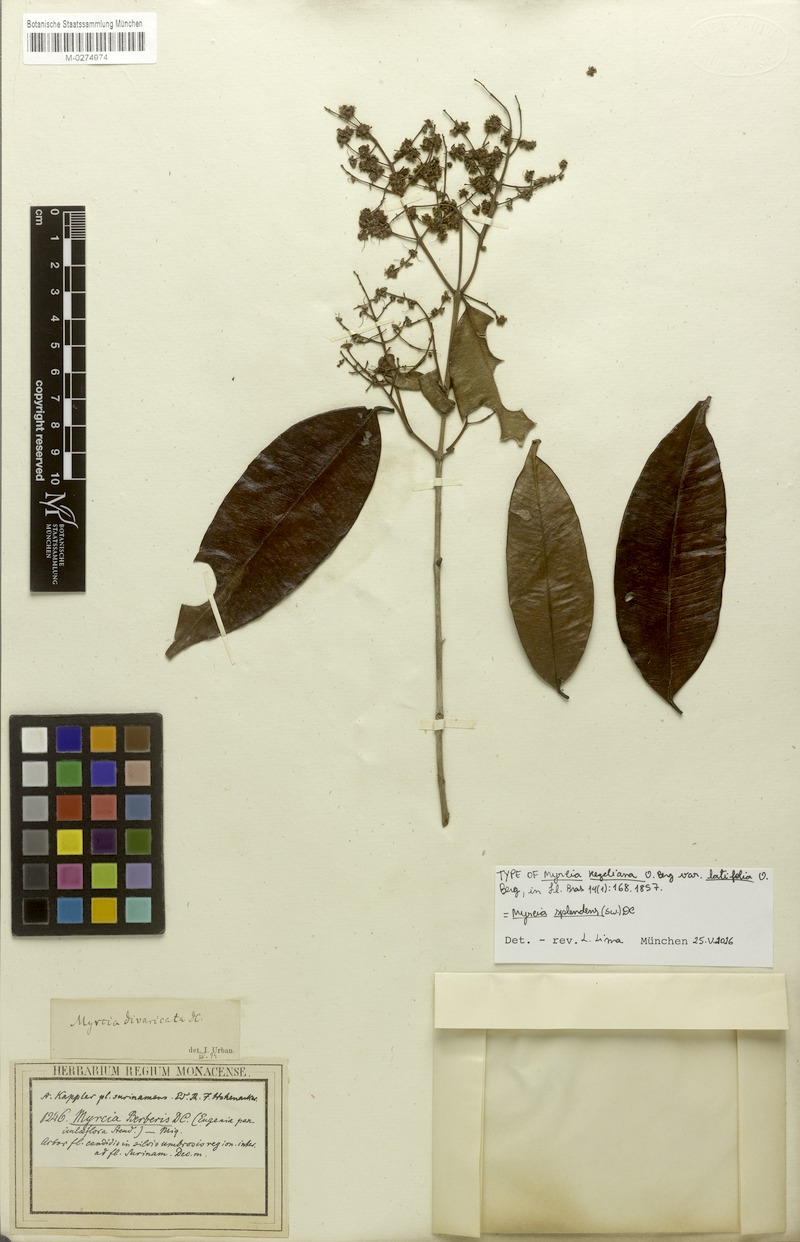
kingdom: Plantae
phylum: Tracheophyta
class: Magnoliopsida
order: Myrtales
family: Myrtaceae
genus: Myrcia
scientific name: Myrcia splendens
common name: Surinam cherry
